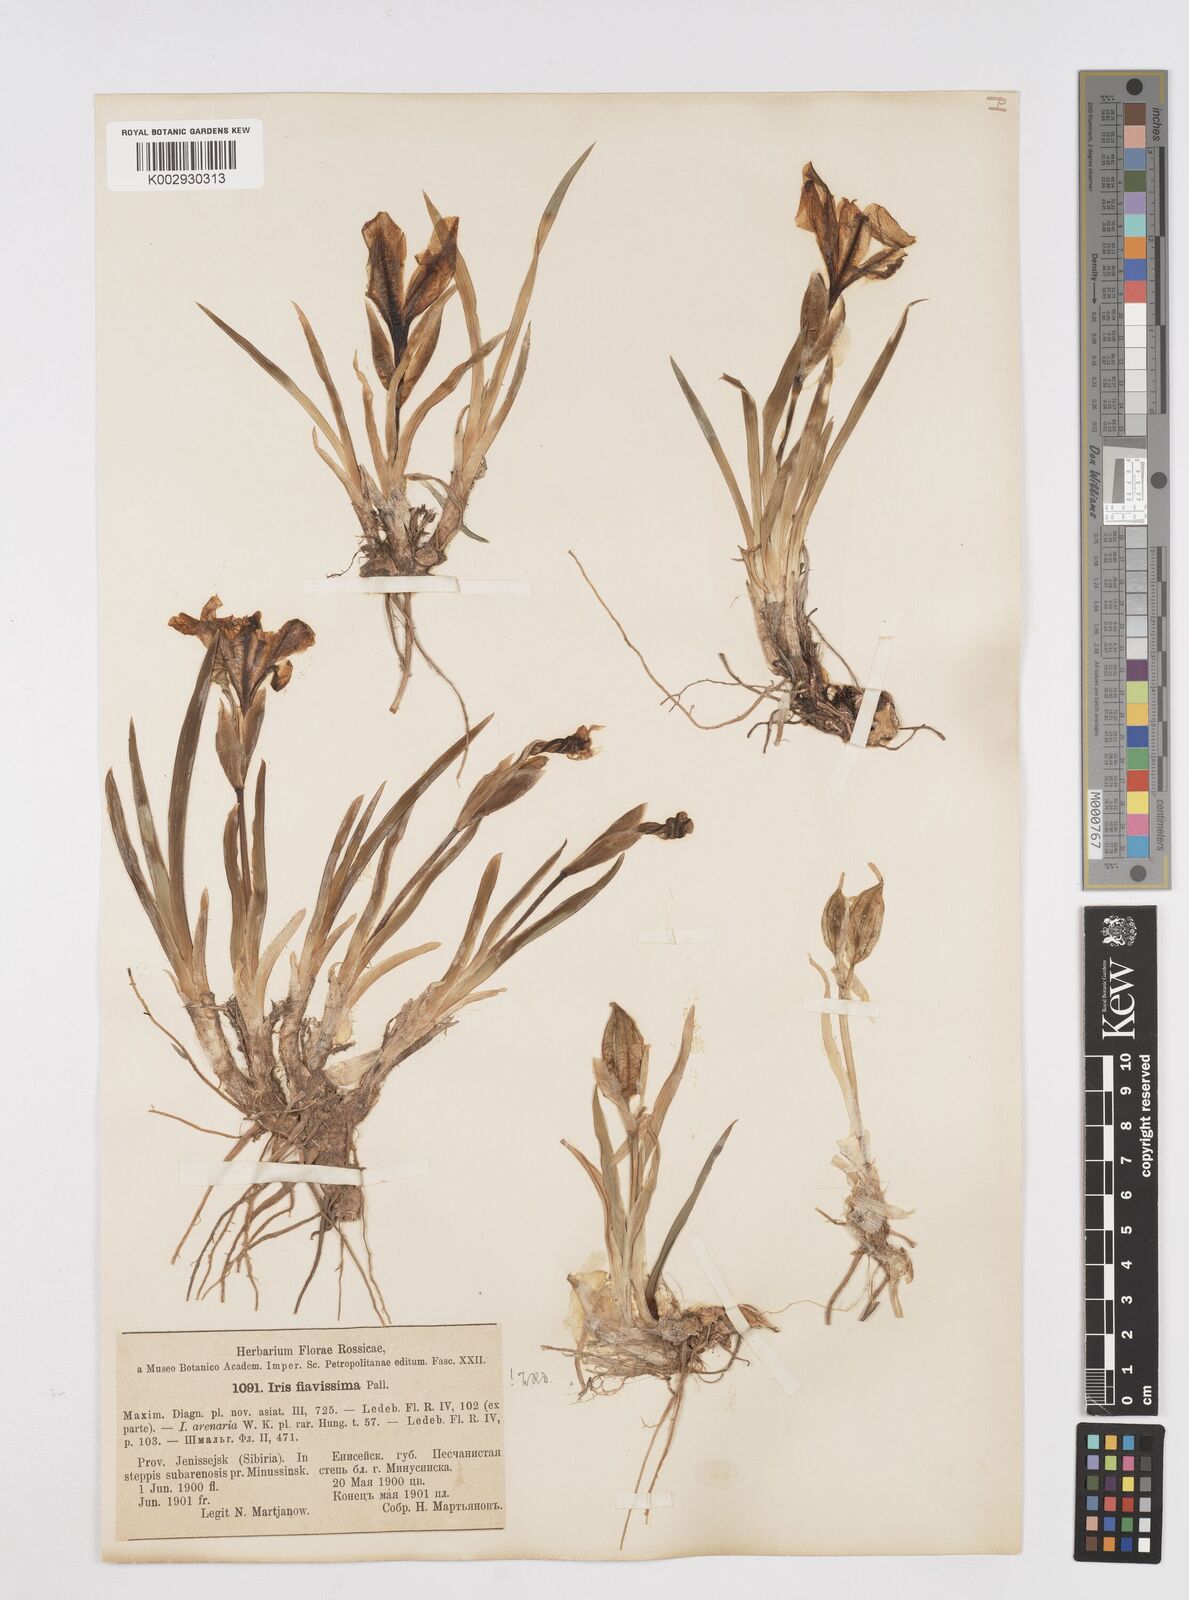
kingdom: Plantae
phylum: Tracheophyta
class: Liliopsida
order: Asparagales
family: Iridaceae
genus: Iris
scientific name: Iris humilis
